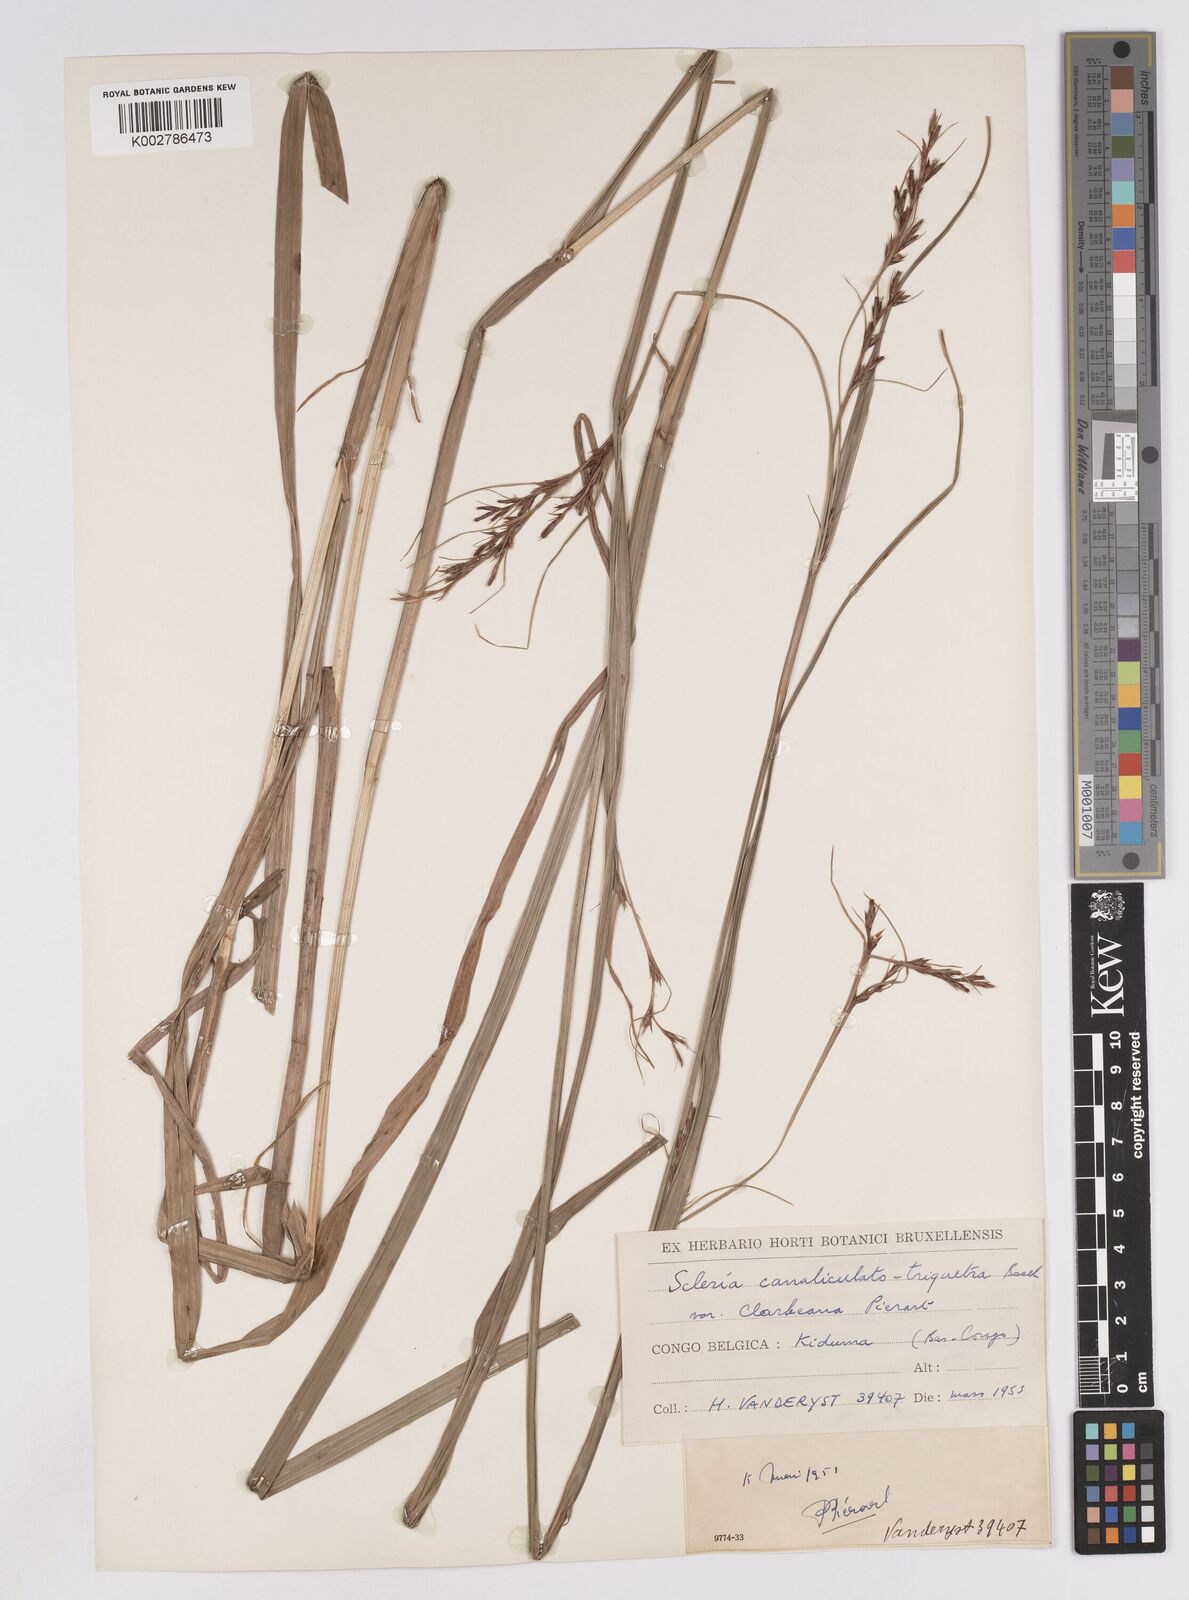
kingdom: Plantae
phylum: Tracheophyta
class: Liliopsida
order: Poales
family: Cyperaceae
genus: Scleria
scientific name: Scleria lagoensis
